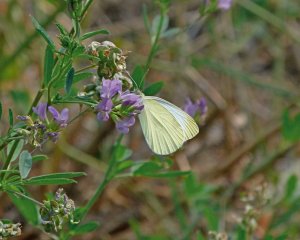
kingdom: Animalia
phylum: Arthropoda
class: Insecta
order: Lepidoptera
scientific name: Lepidoptera
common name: Butterflies
